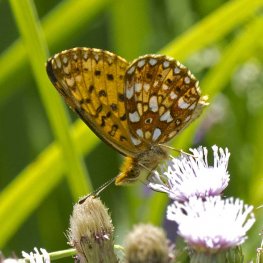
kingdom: Animalia
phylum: Arthropoda
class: Insecta
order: Lepidoptera
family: Nymphalidae
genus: Boloria
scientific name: Boloria selene
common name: Silver-bordered Fritillary
